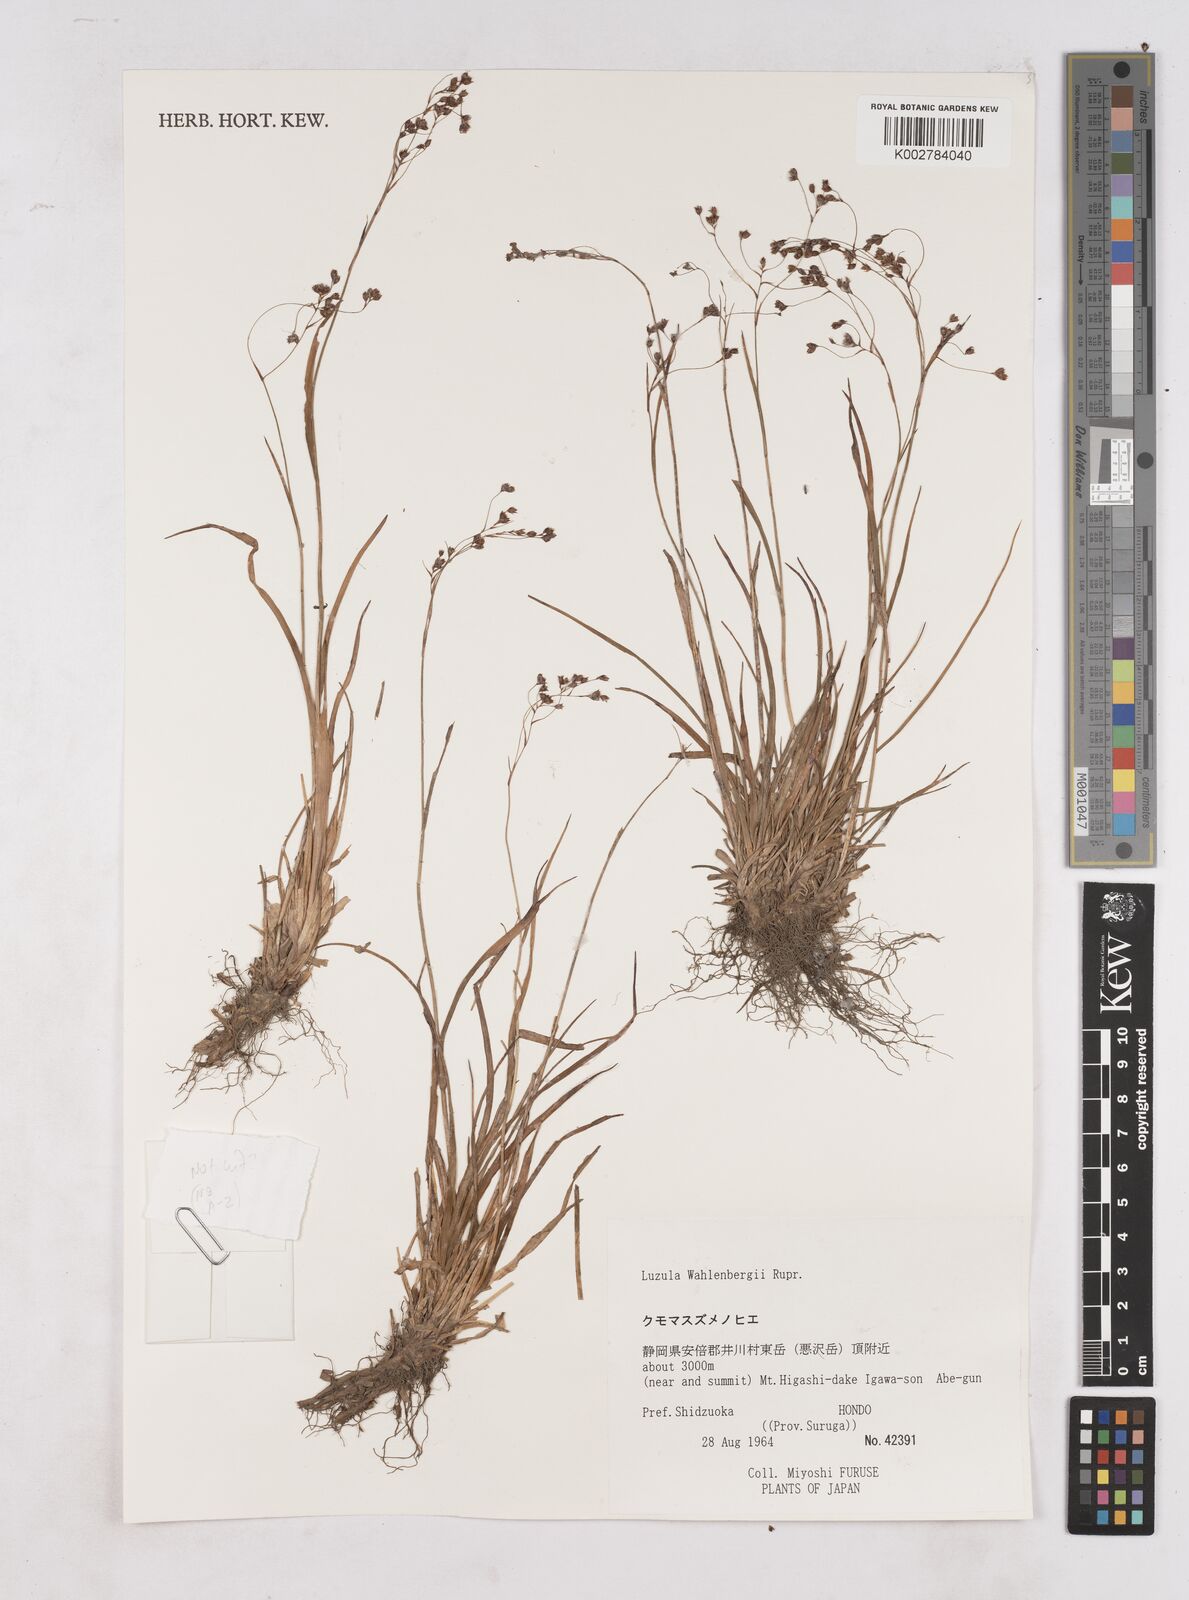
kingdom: Plantae
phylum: Tracheophyta
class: Liliopsida
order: Poales
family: Juncaceae
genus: Luzula
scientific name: Luzula wahlenbergii
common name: Wahlenberg's wood-rush
